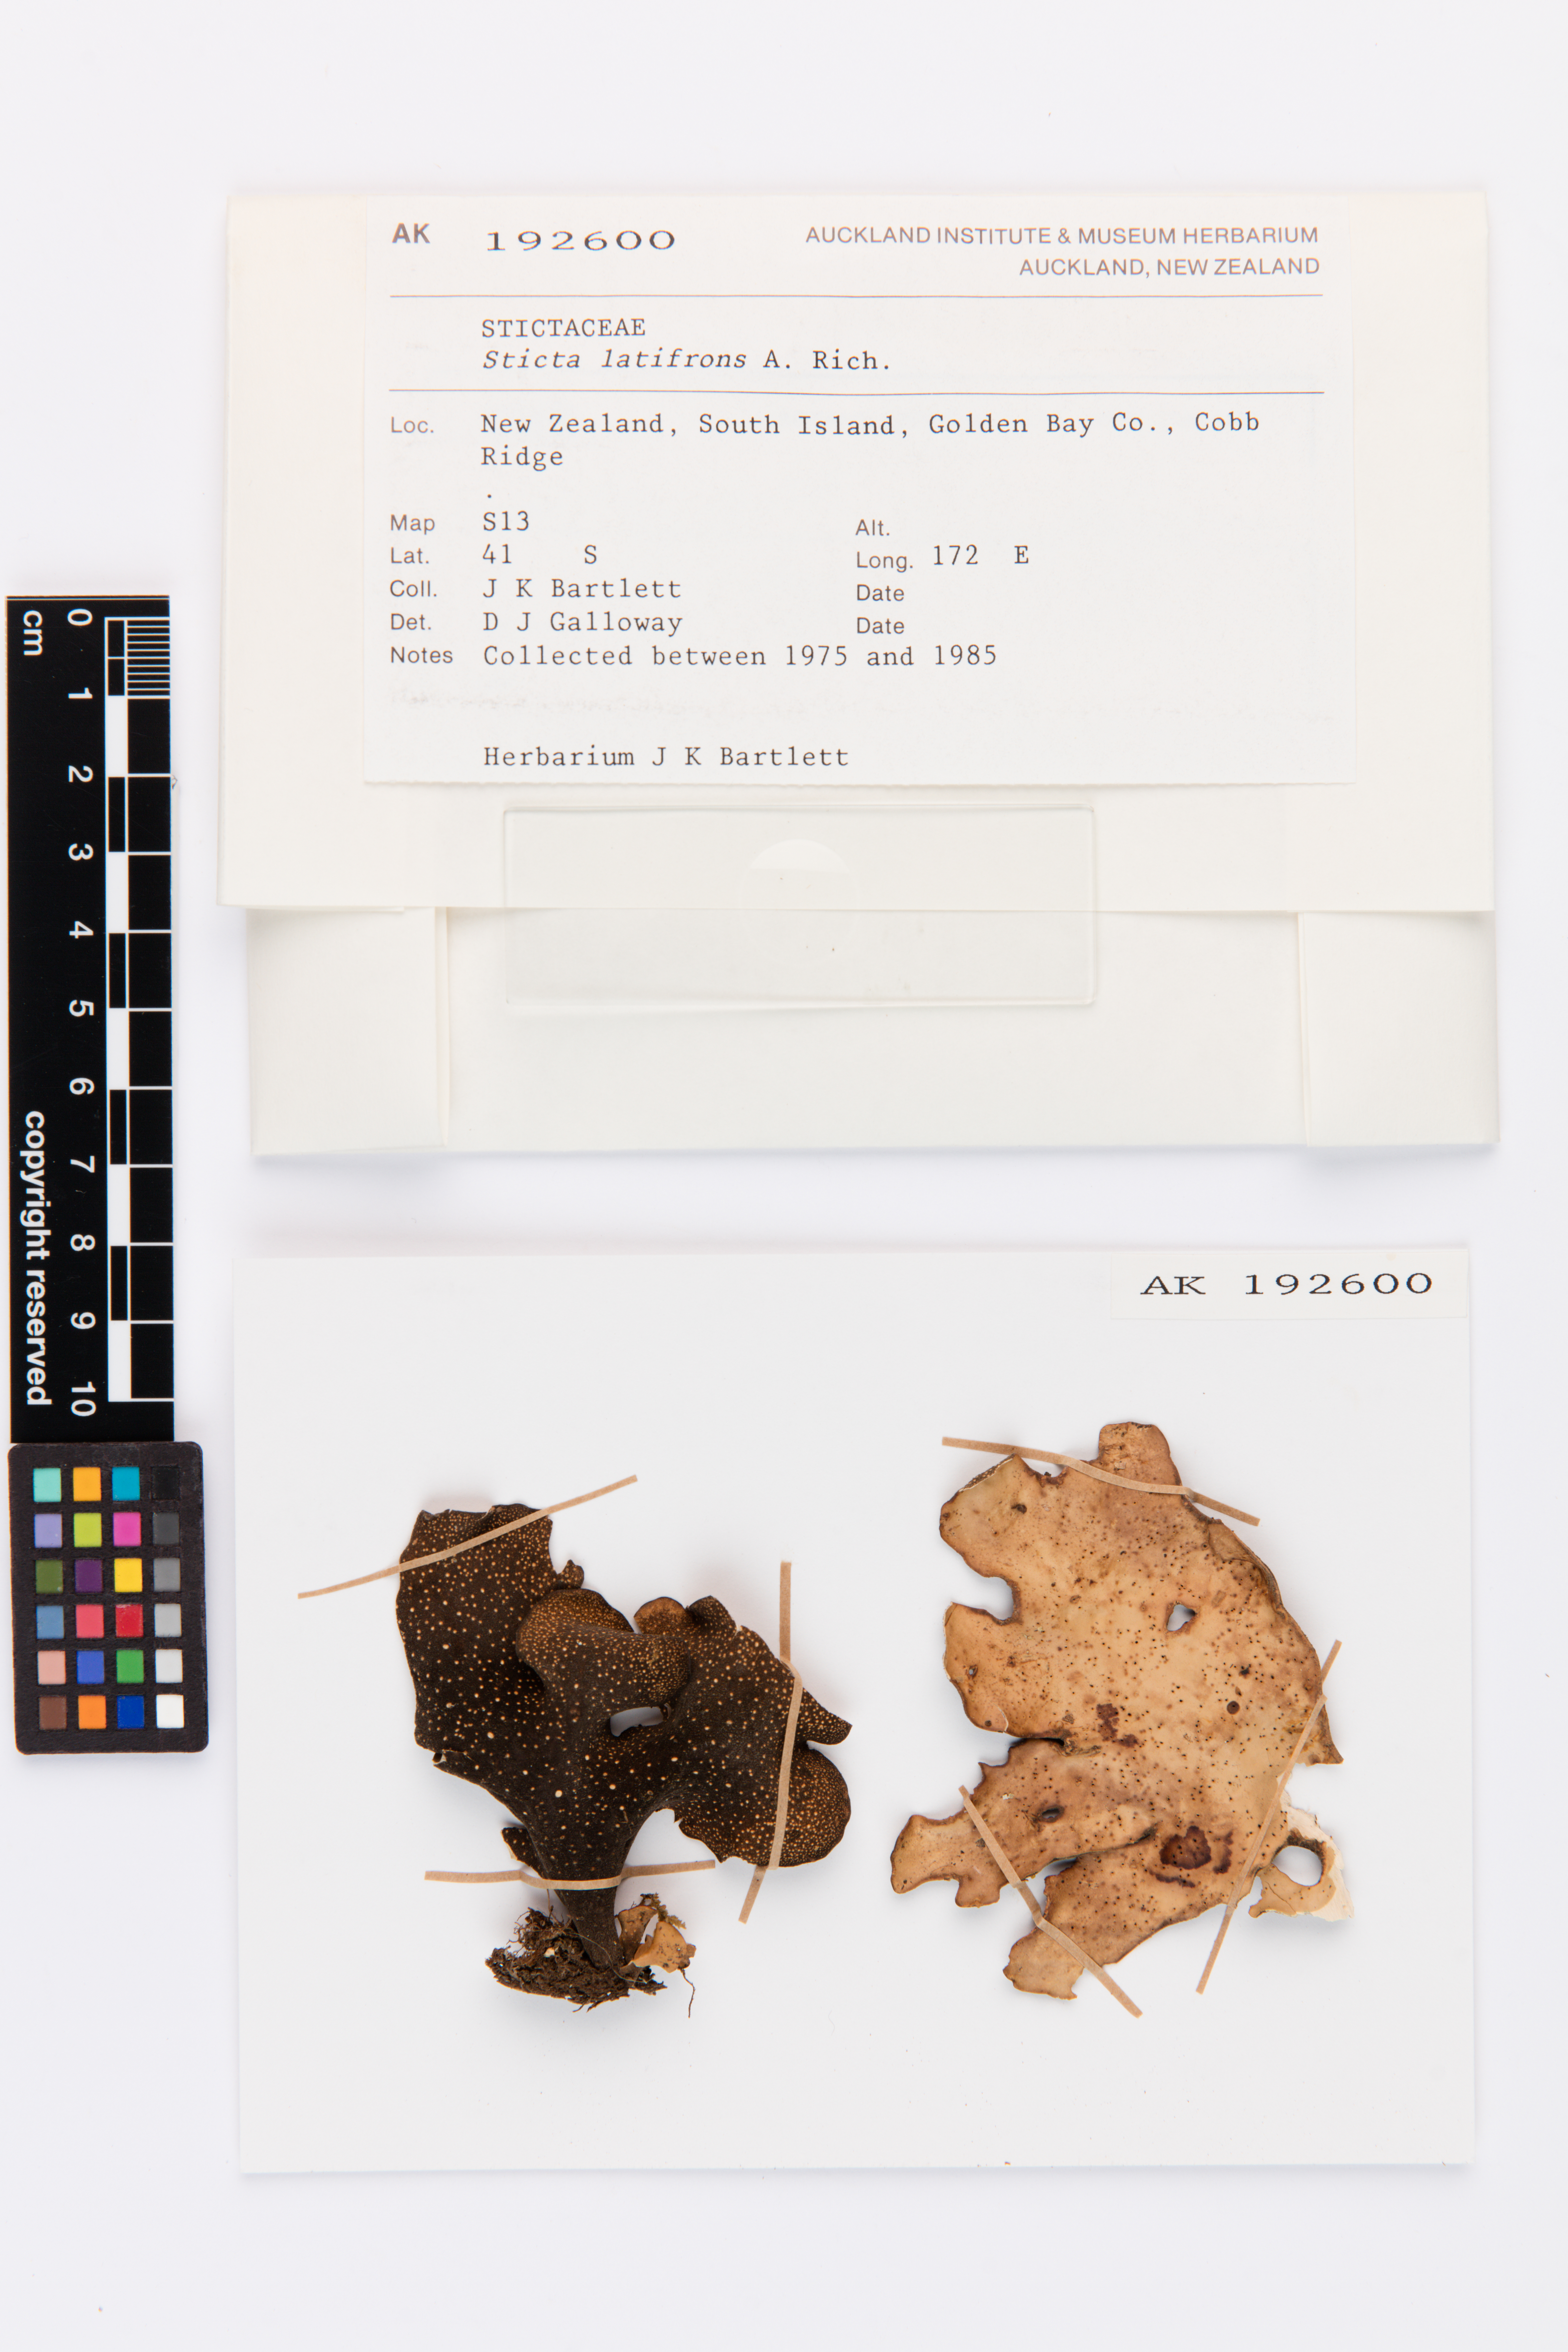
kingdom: Fungi
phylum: Ascomycota
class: Lecanoromycetes
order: Peltigerales
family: Lobariaceae
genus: Sticta
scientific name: Sticta latifrons
